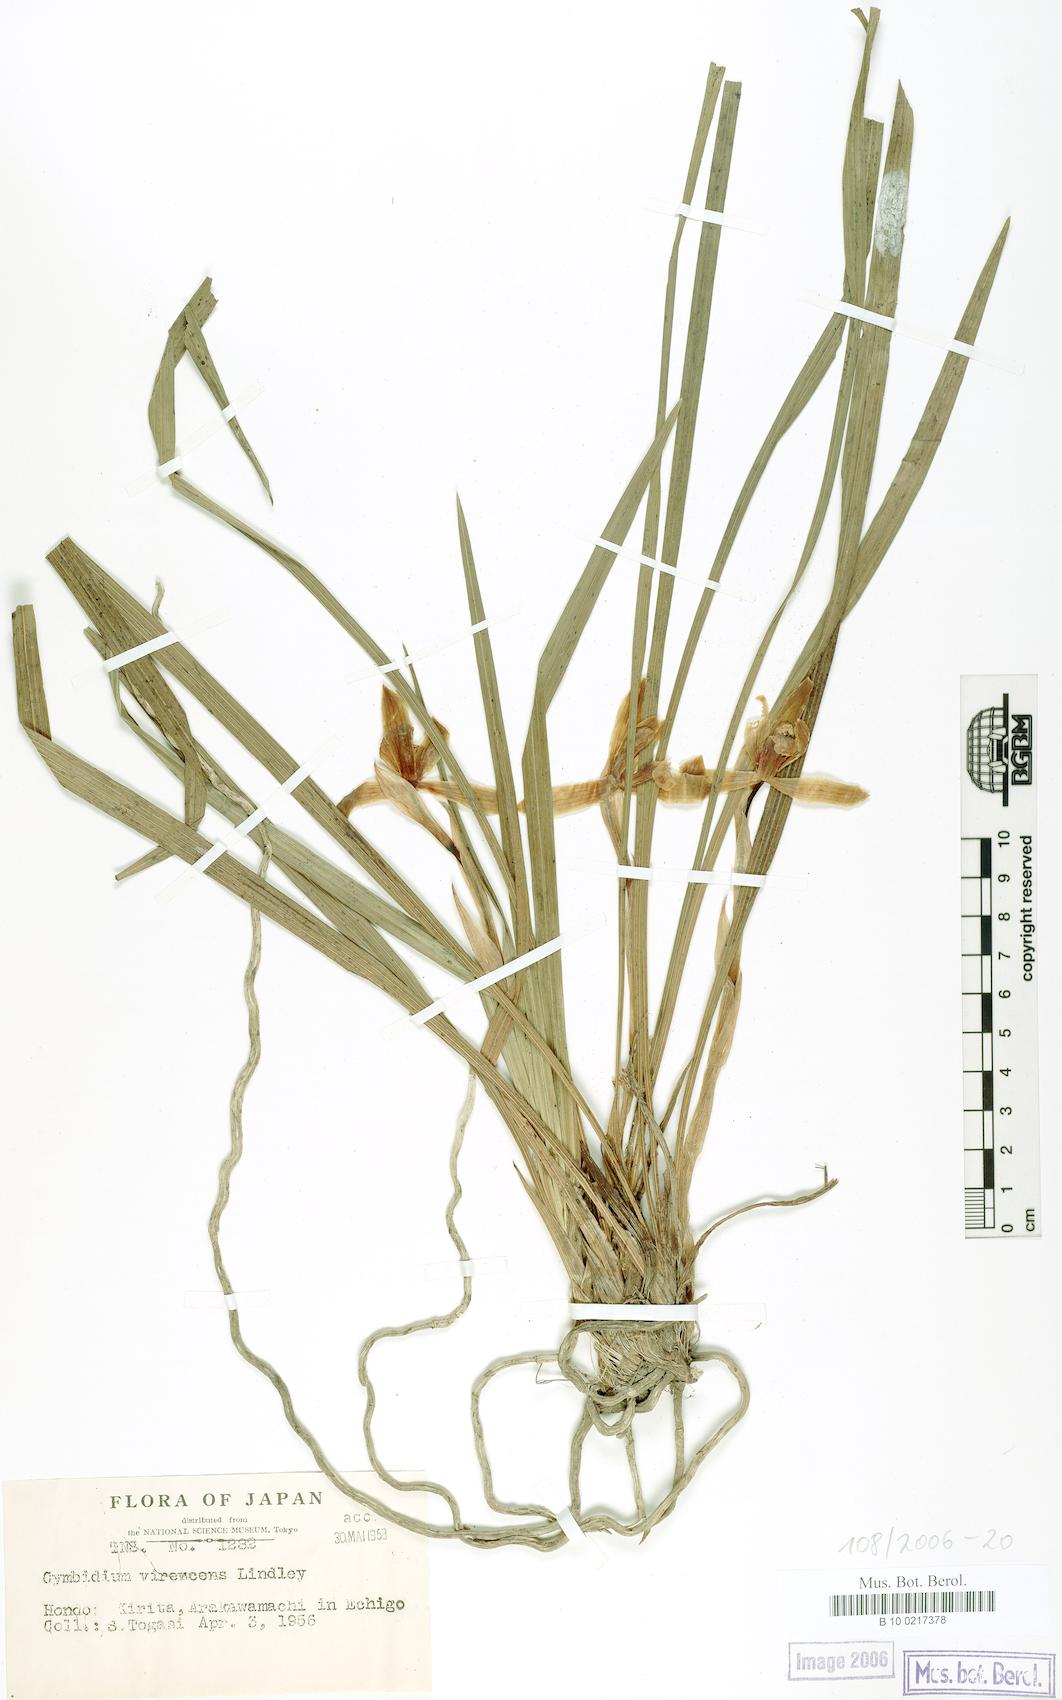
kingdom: Plantae
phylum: Tracheophyta
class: Liliopsida
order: Asparagales
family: Orchidaceae
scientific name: Orchidaceae
